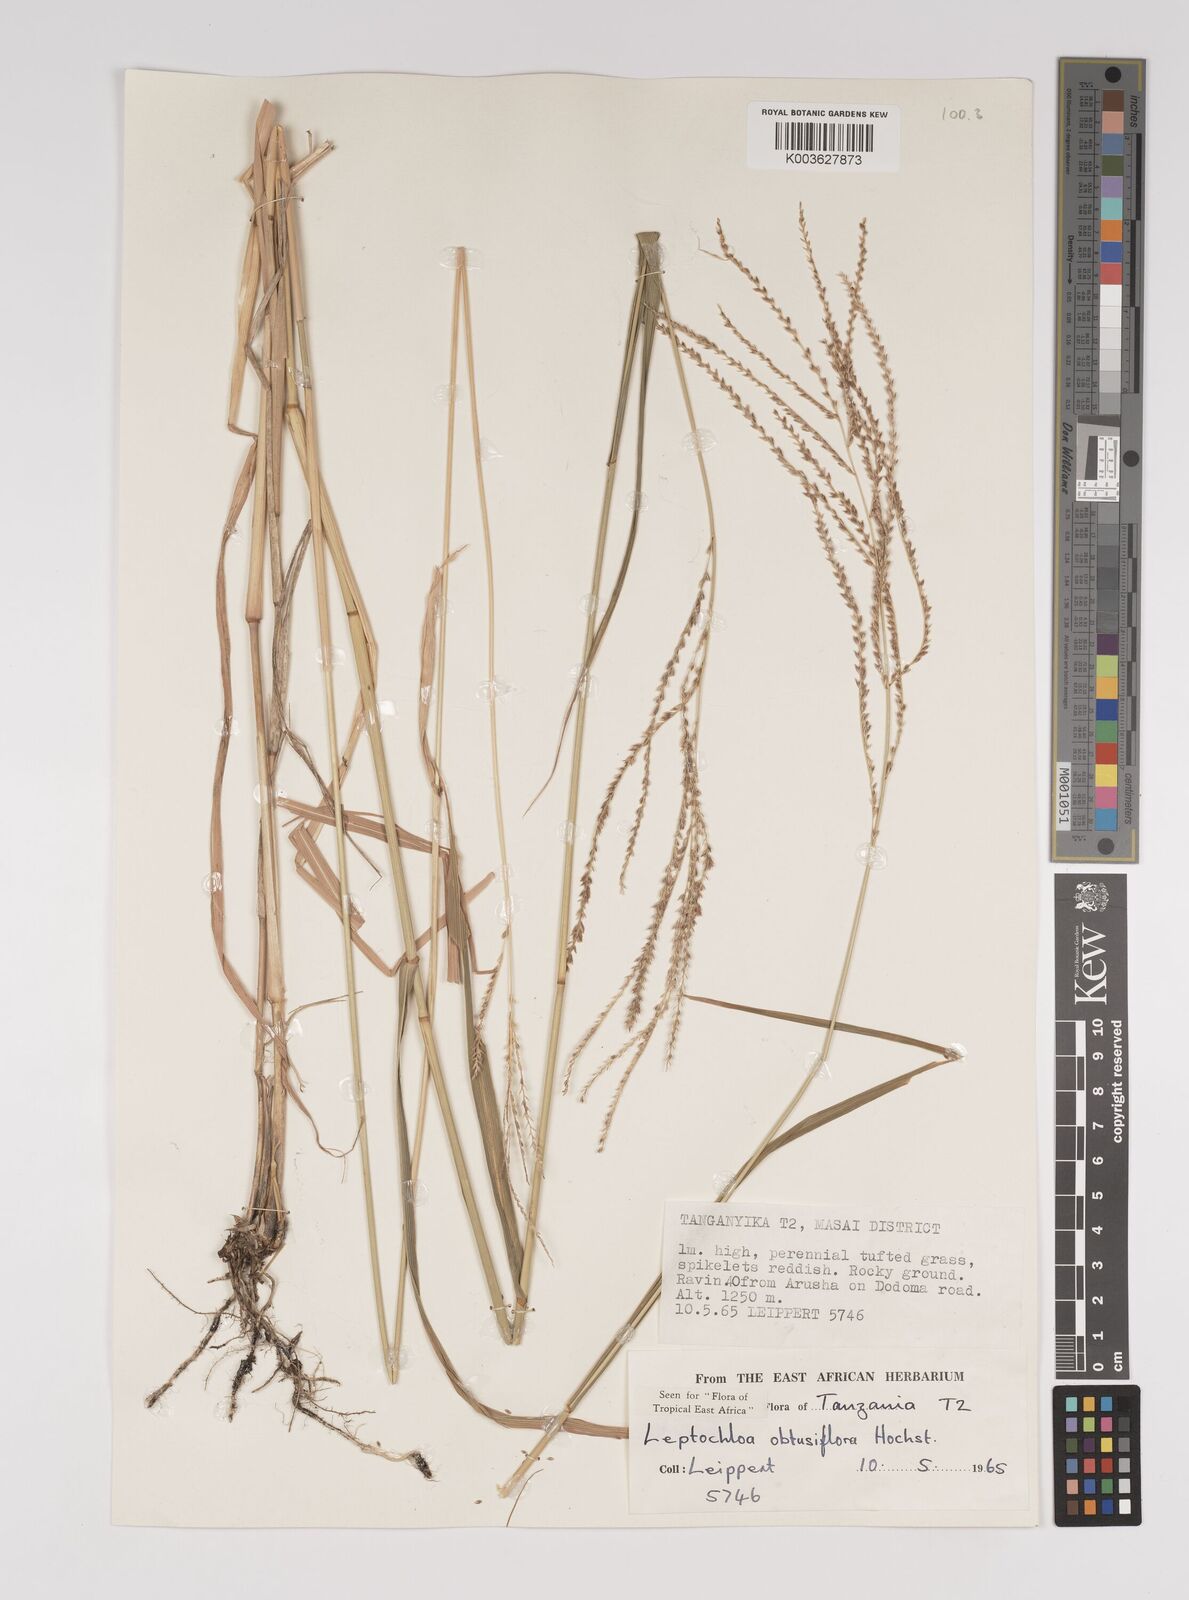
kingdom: Plantae
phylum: Tracheophyta
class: Liliopsida
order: Poales
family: Poaceae
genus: Disakisperma
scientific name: Disakisperma obtusiflorum
